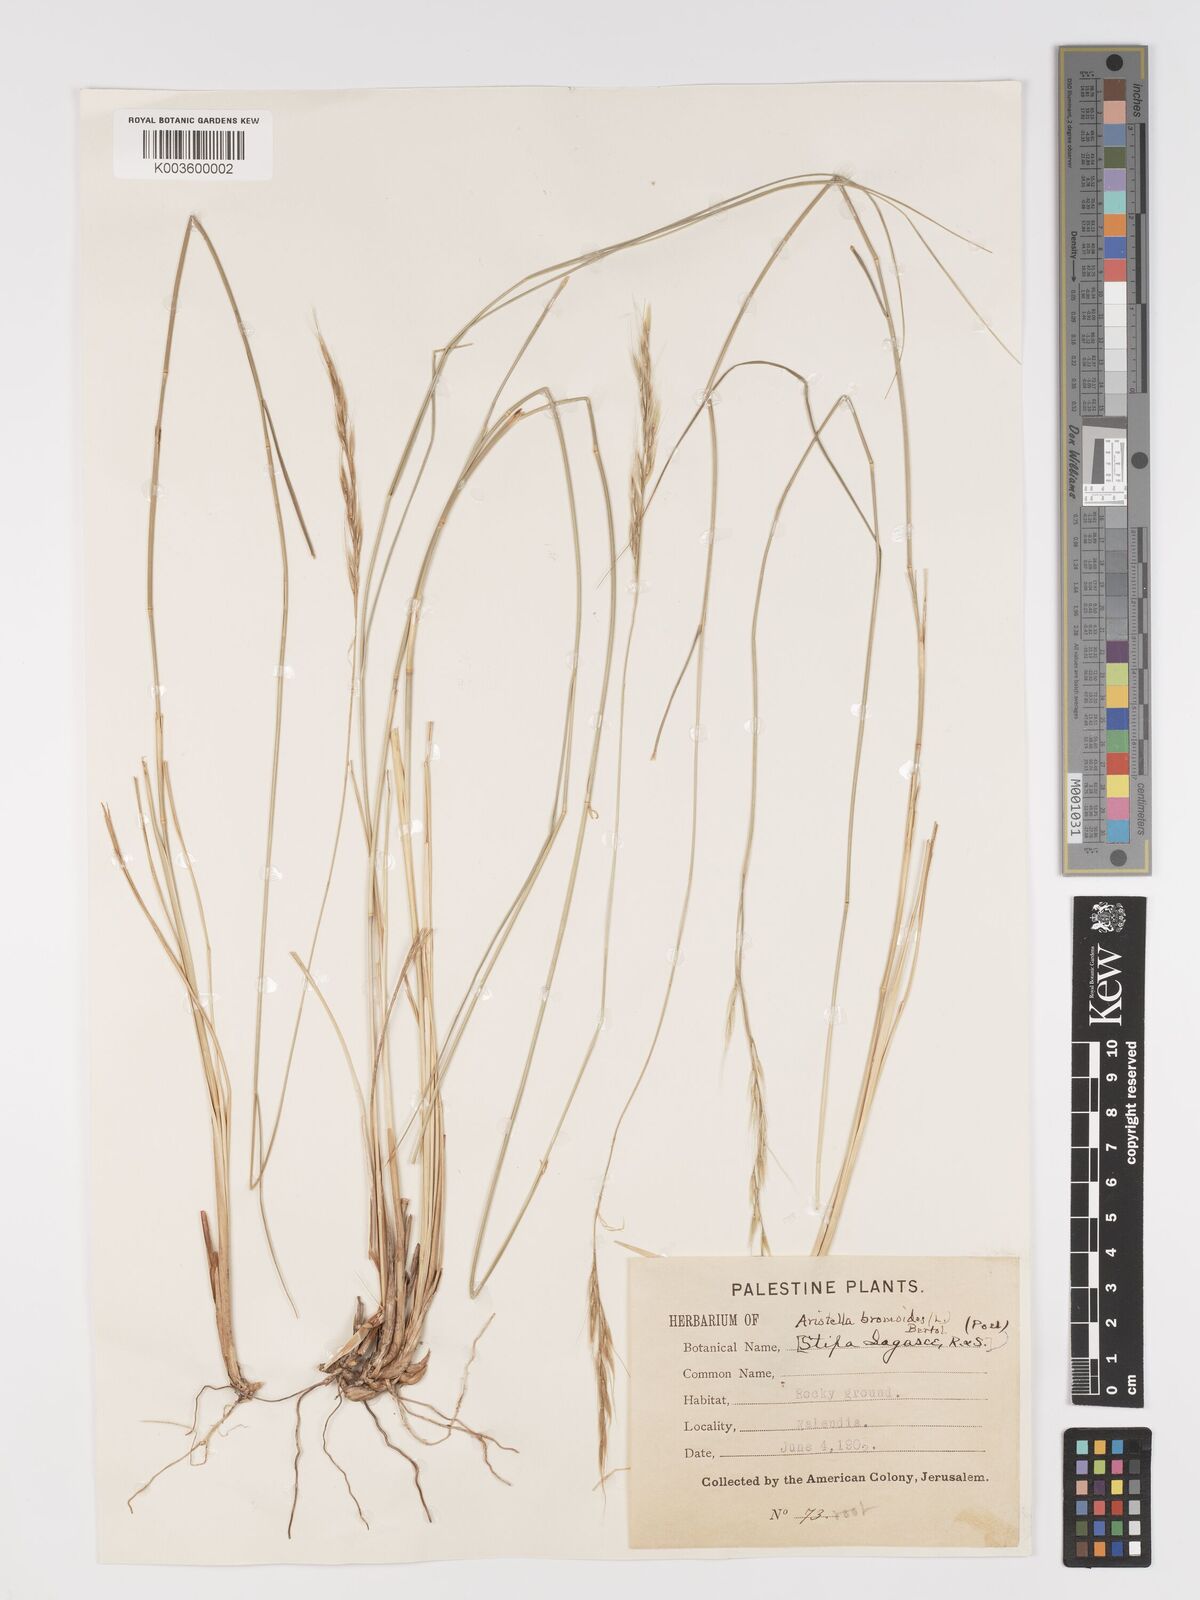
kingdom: Plantae
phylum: Tracheophyta
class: Liliopsida
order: Poales
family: Poaceae
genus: Achnatherum
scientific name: Achnatherum bromoides
